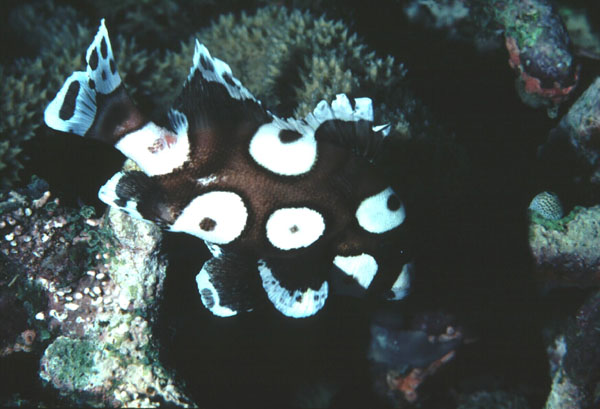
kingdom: Animalia
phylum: Chordata
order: Perciformes
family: Haemulidae
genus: Plectorhinchus
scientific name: Plectorhinchus chaetodonoides
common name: Harlequin sweetlips
